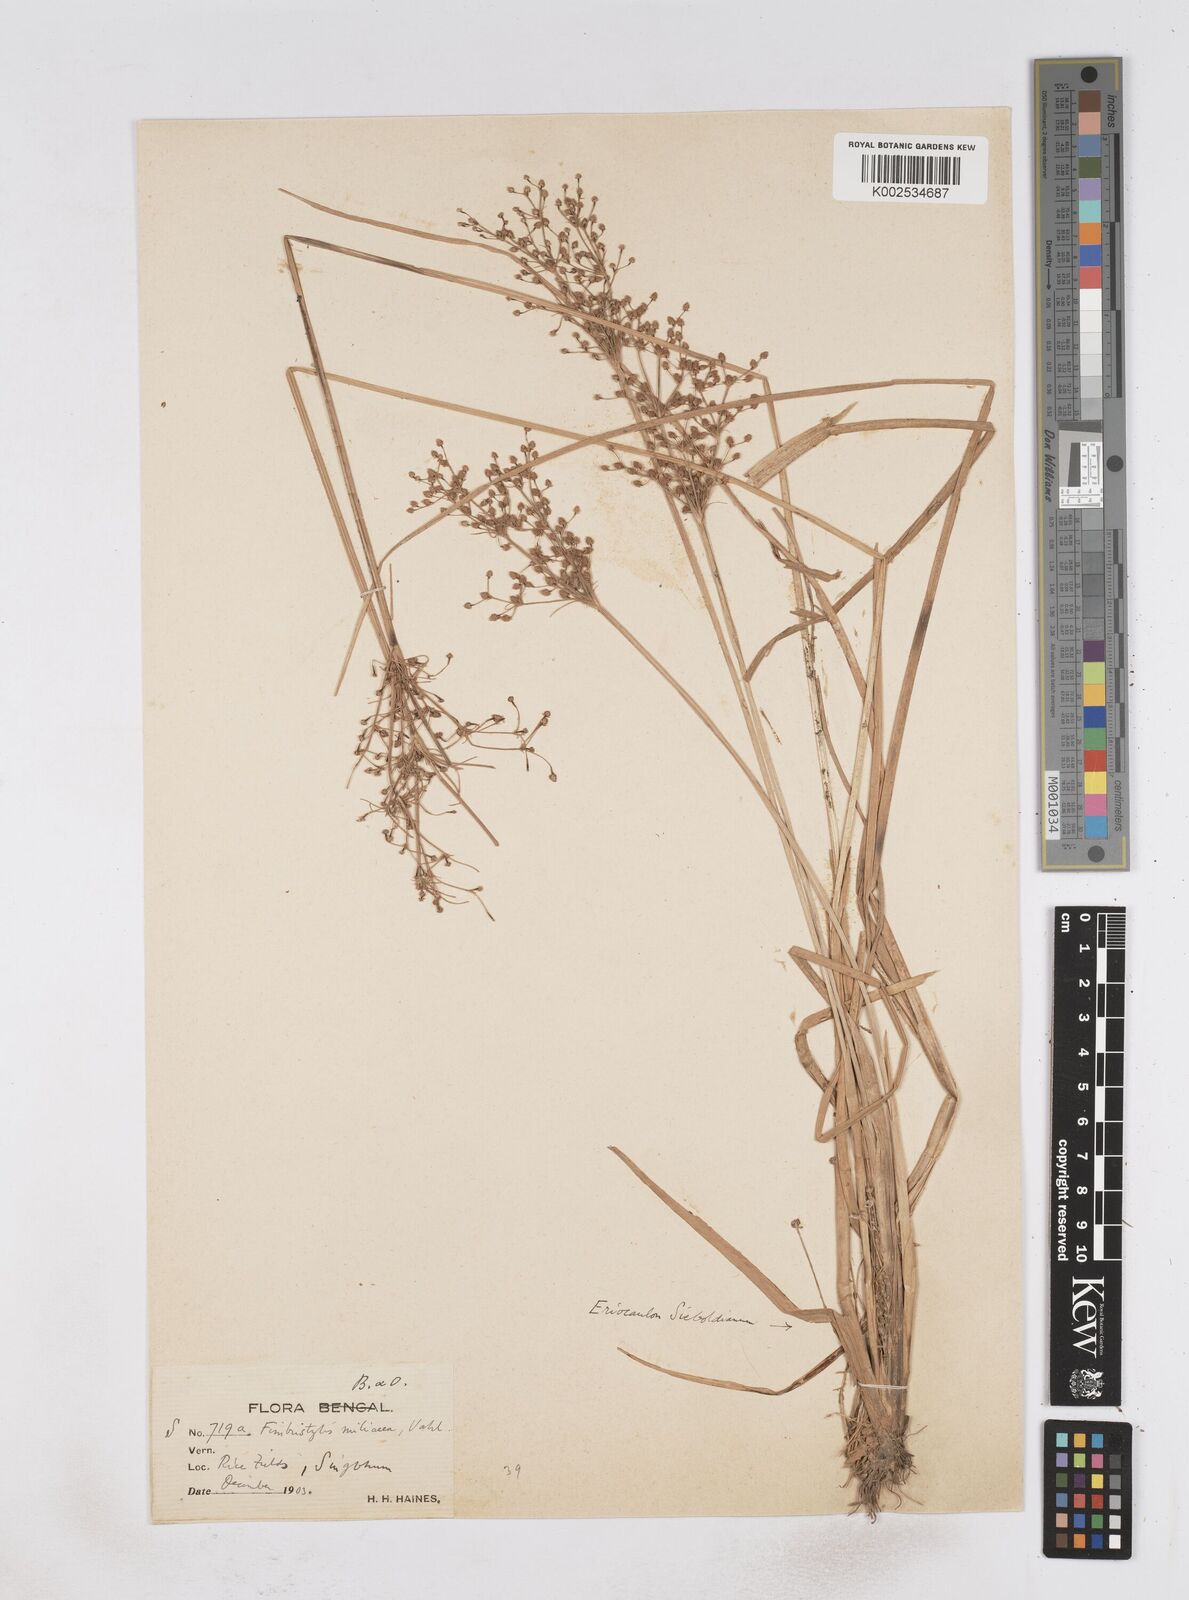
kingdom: Plantae
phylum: Tracheophyta
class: Liliopsida
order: Poales
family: Cyperaceae
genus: Fimbristylis
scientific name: Fimbristylis littoralis
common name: Fimbry
